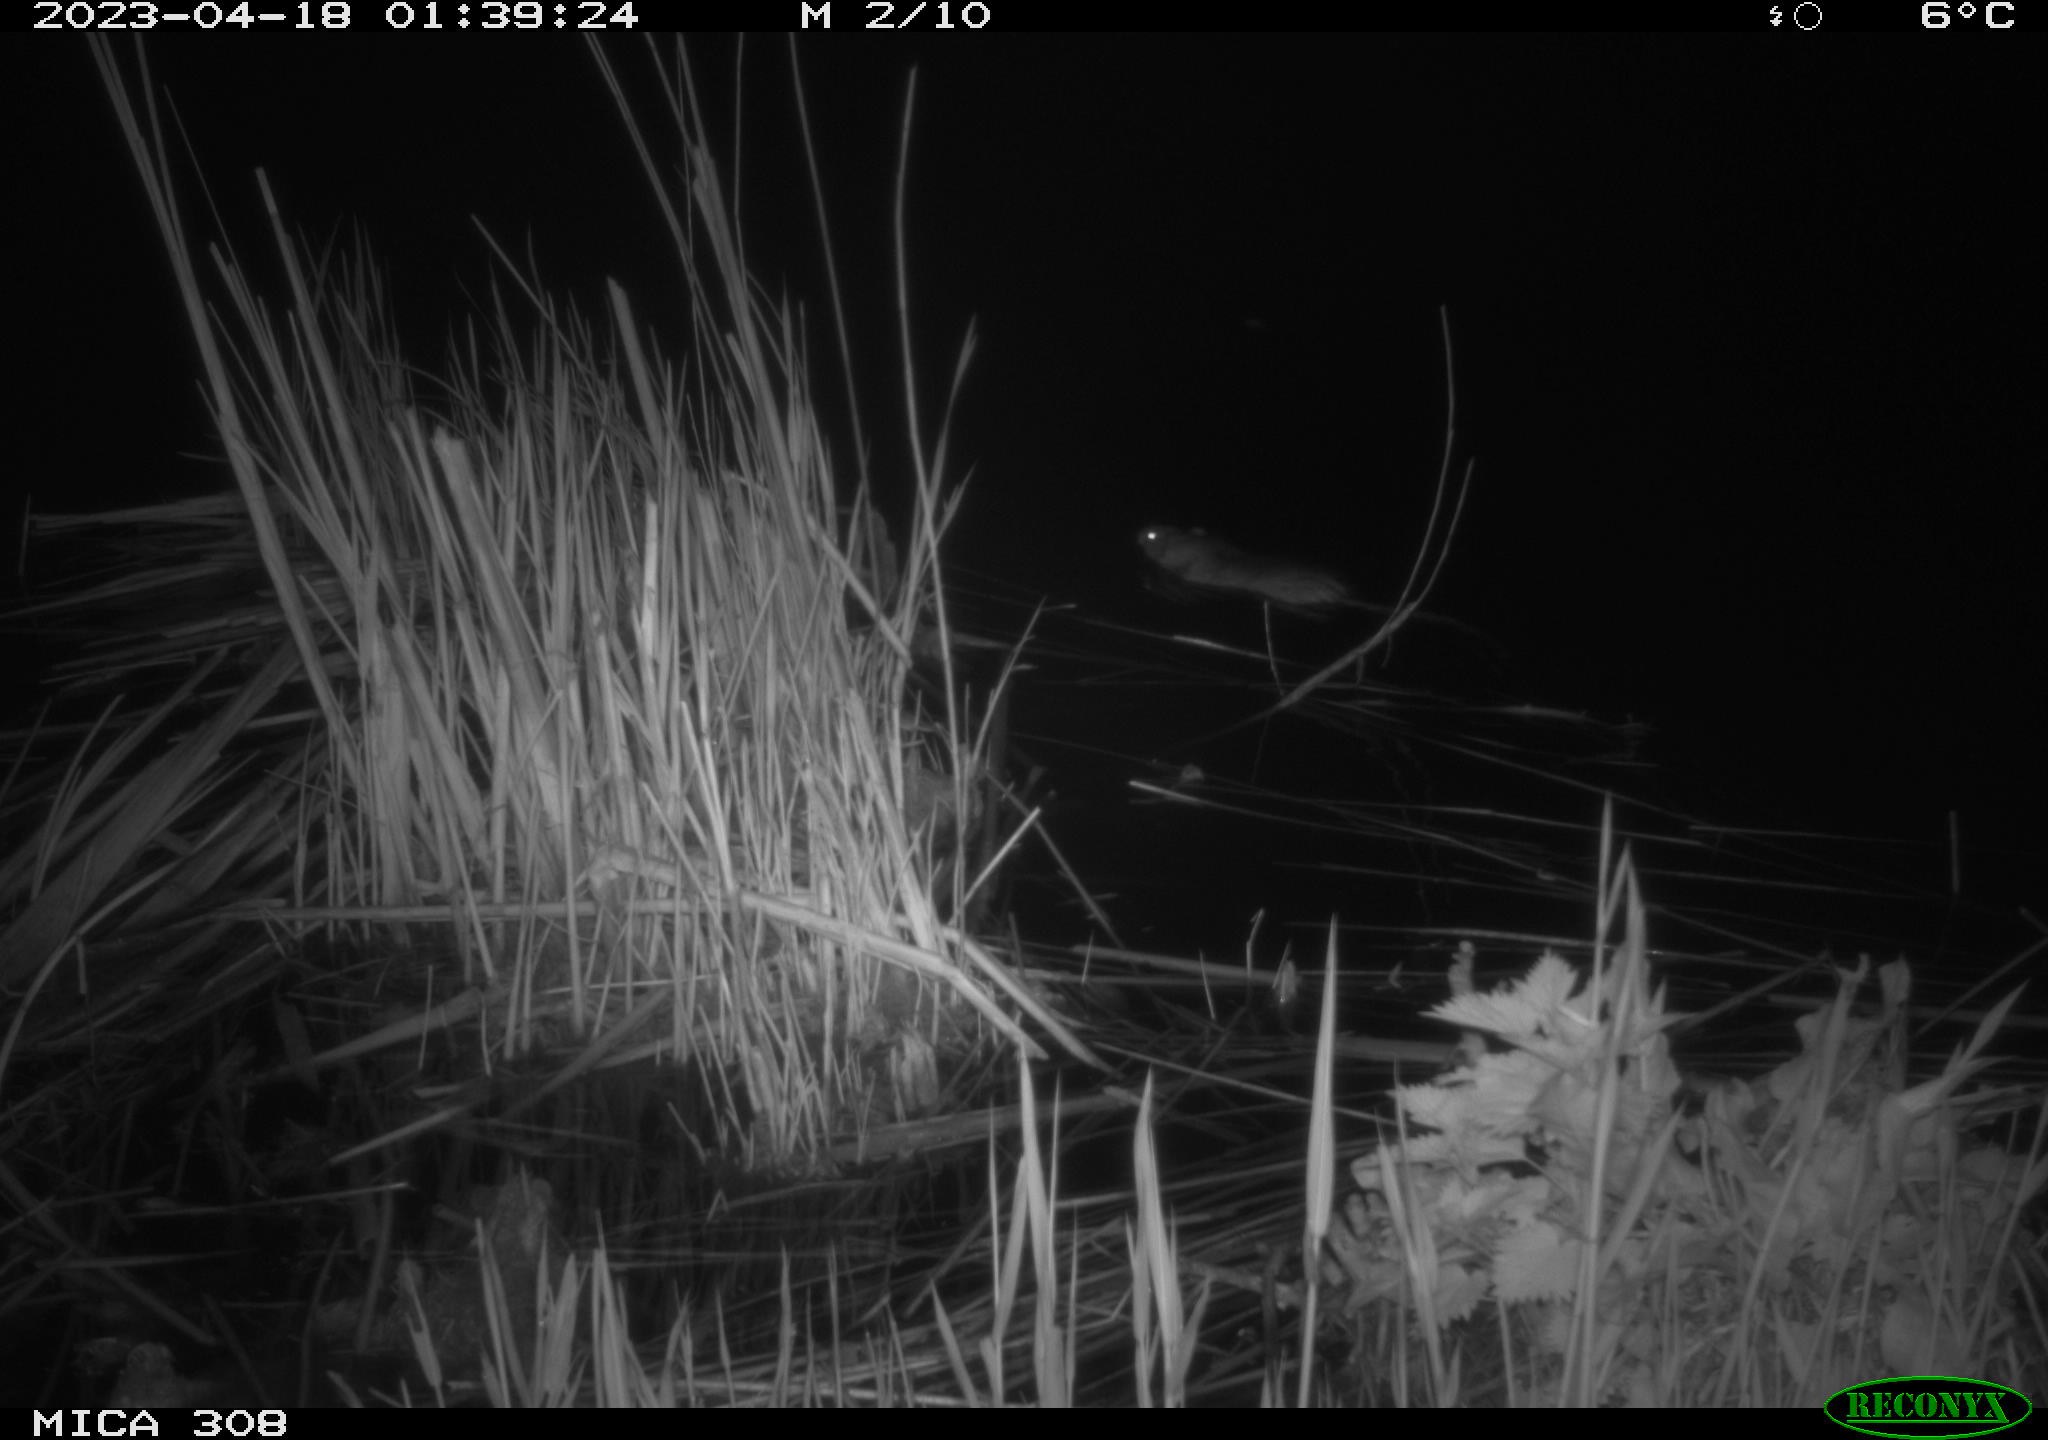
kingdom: Animalia
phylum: Chordata
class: Mammalia
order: Rodentia
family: Muridae
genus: Rattus
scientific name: Rattus norvegicus
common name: Brown rat
